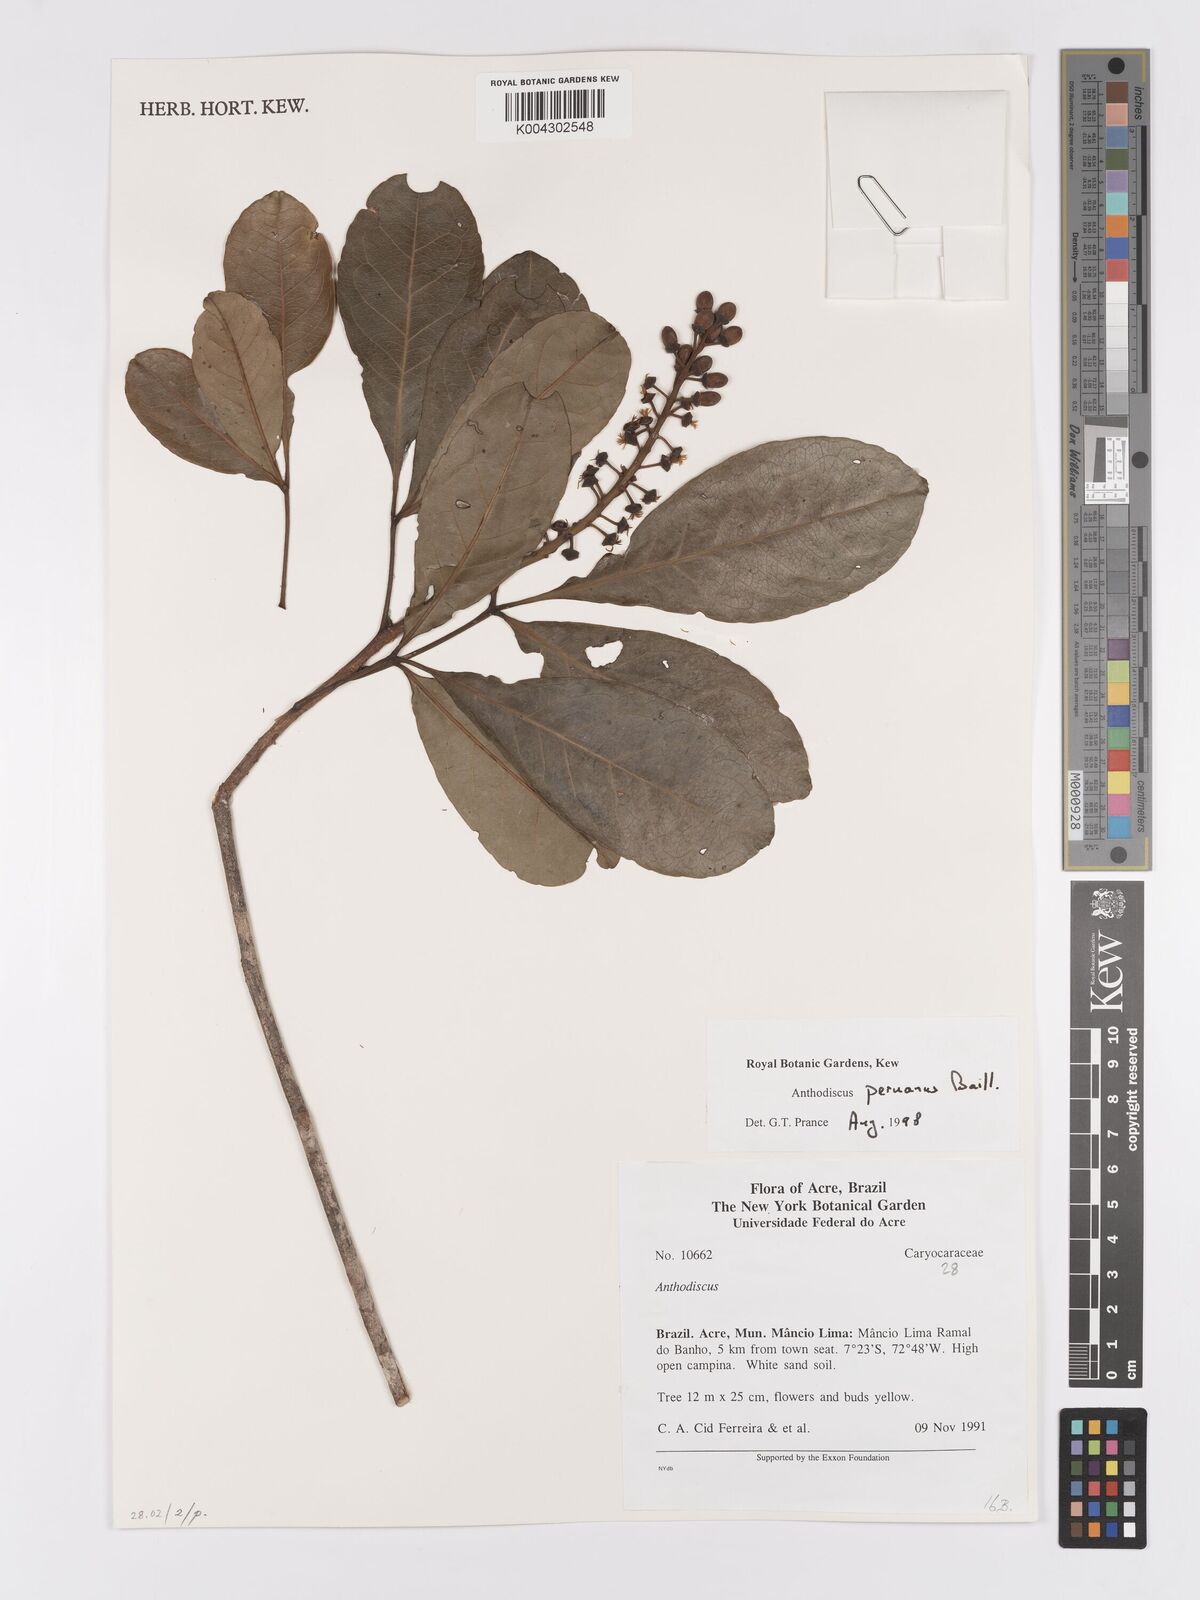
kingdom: Plantae
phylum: Tracheophyta
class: Magnoliopsida
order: Malpighiales
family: Caryocaraceae
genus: Anthodiscus
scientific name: Anthodiscus peruanus
